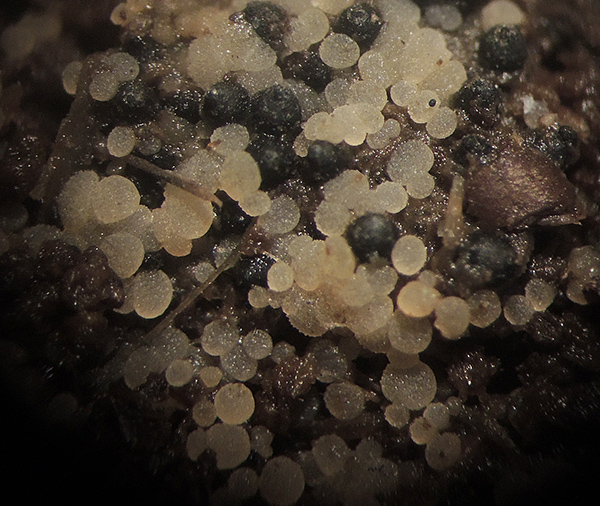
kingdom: Fungi
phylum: Ascomycota
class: Pezizomycetes
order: Pezizales
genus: Coprotus
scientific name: Coprotus granuliformis
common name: ballonsækket småbæger
